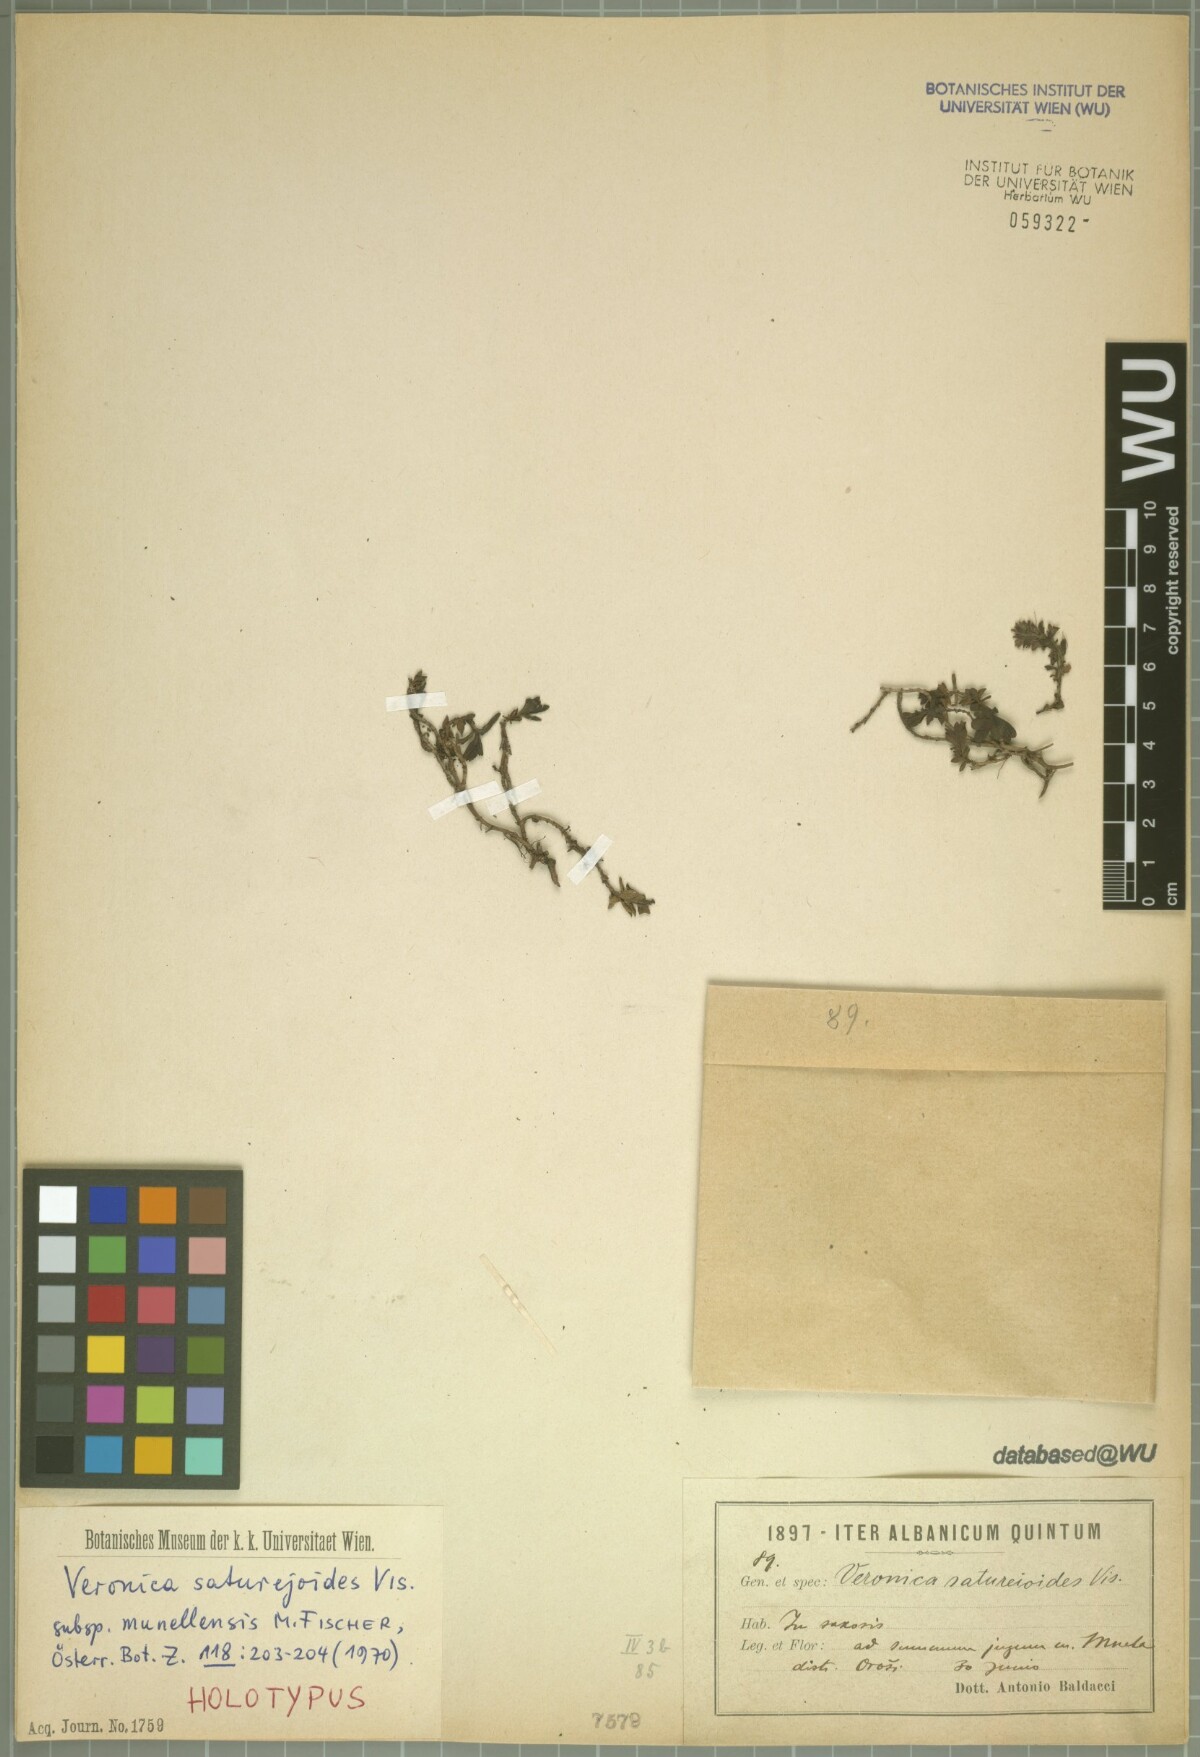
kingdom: Plantae
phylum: Tracheophyta
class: Magnoliopsida
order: Lamiales
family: Plantaginaceae
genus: Veronica
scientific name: Veronica saturejoides
